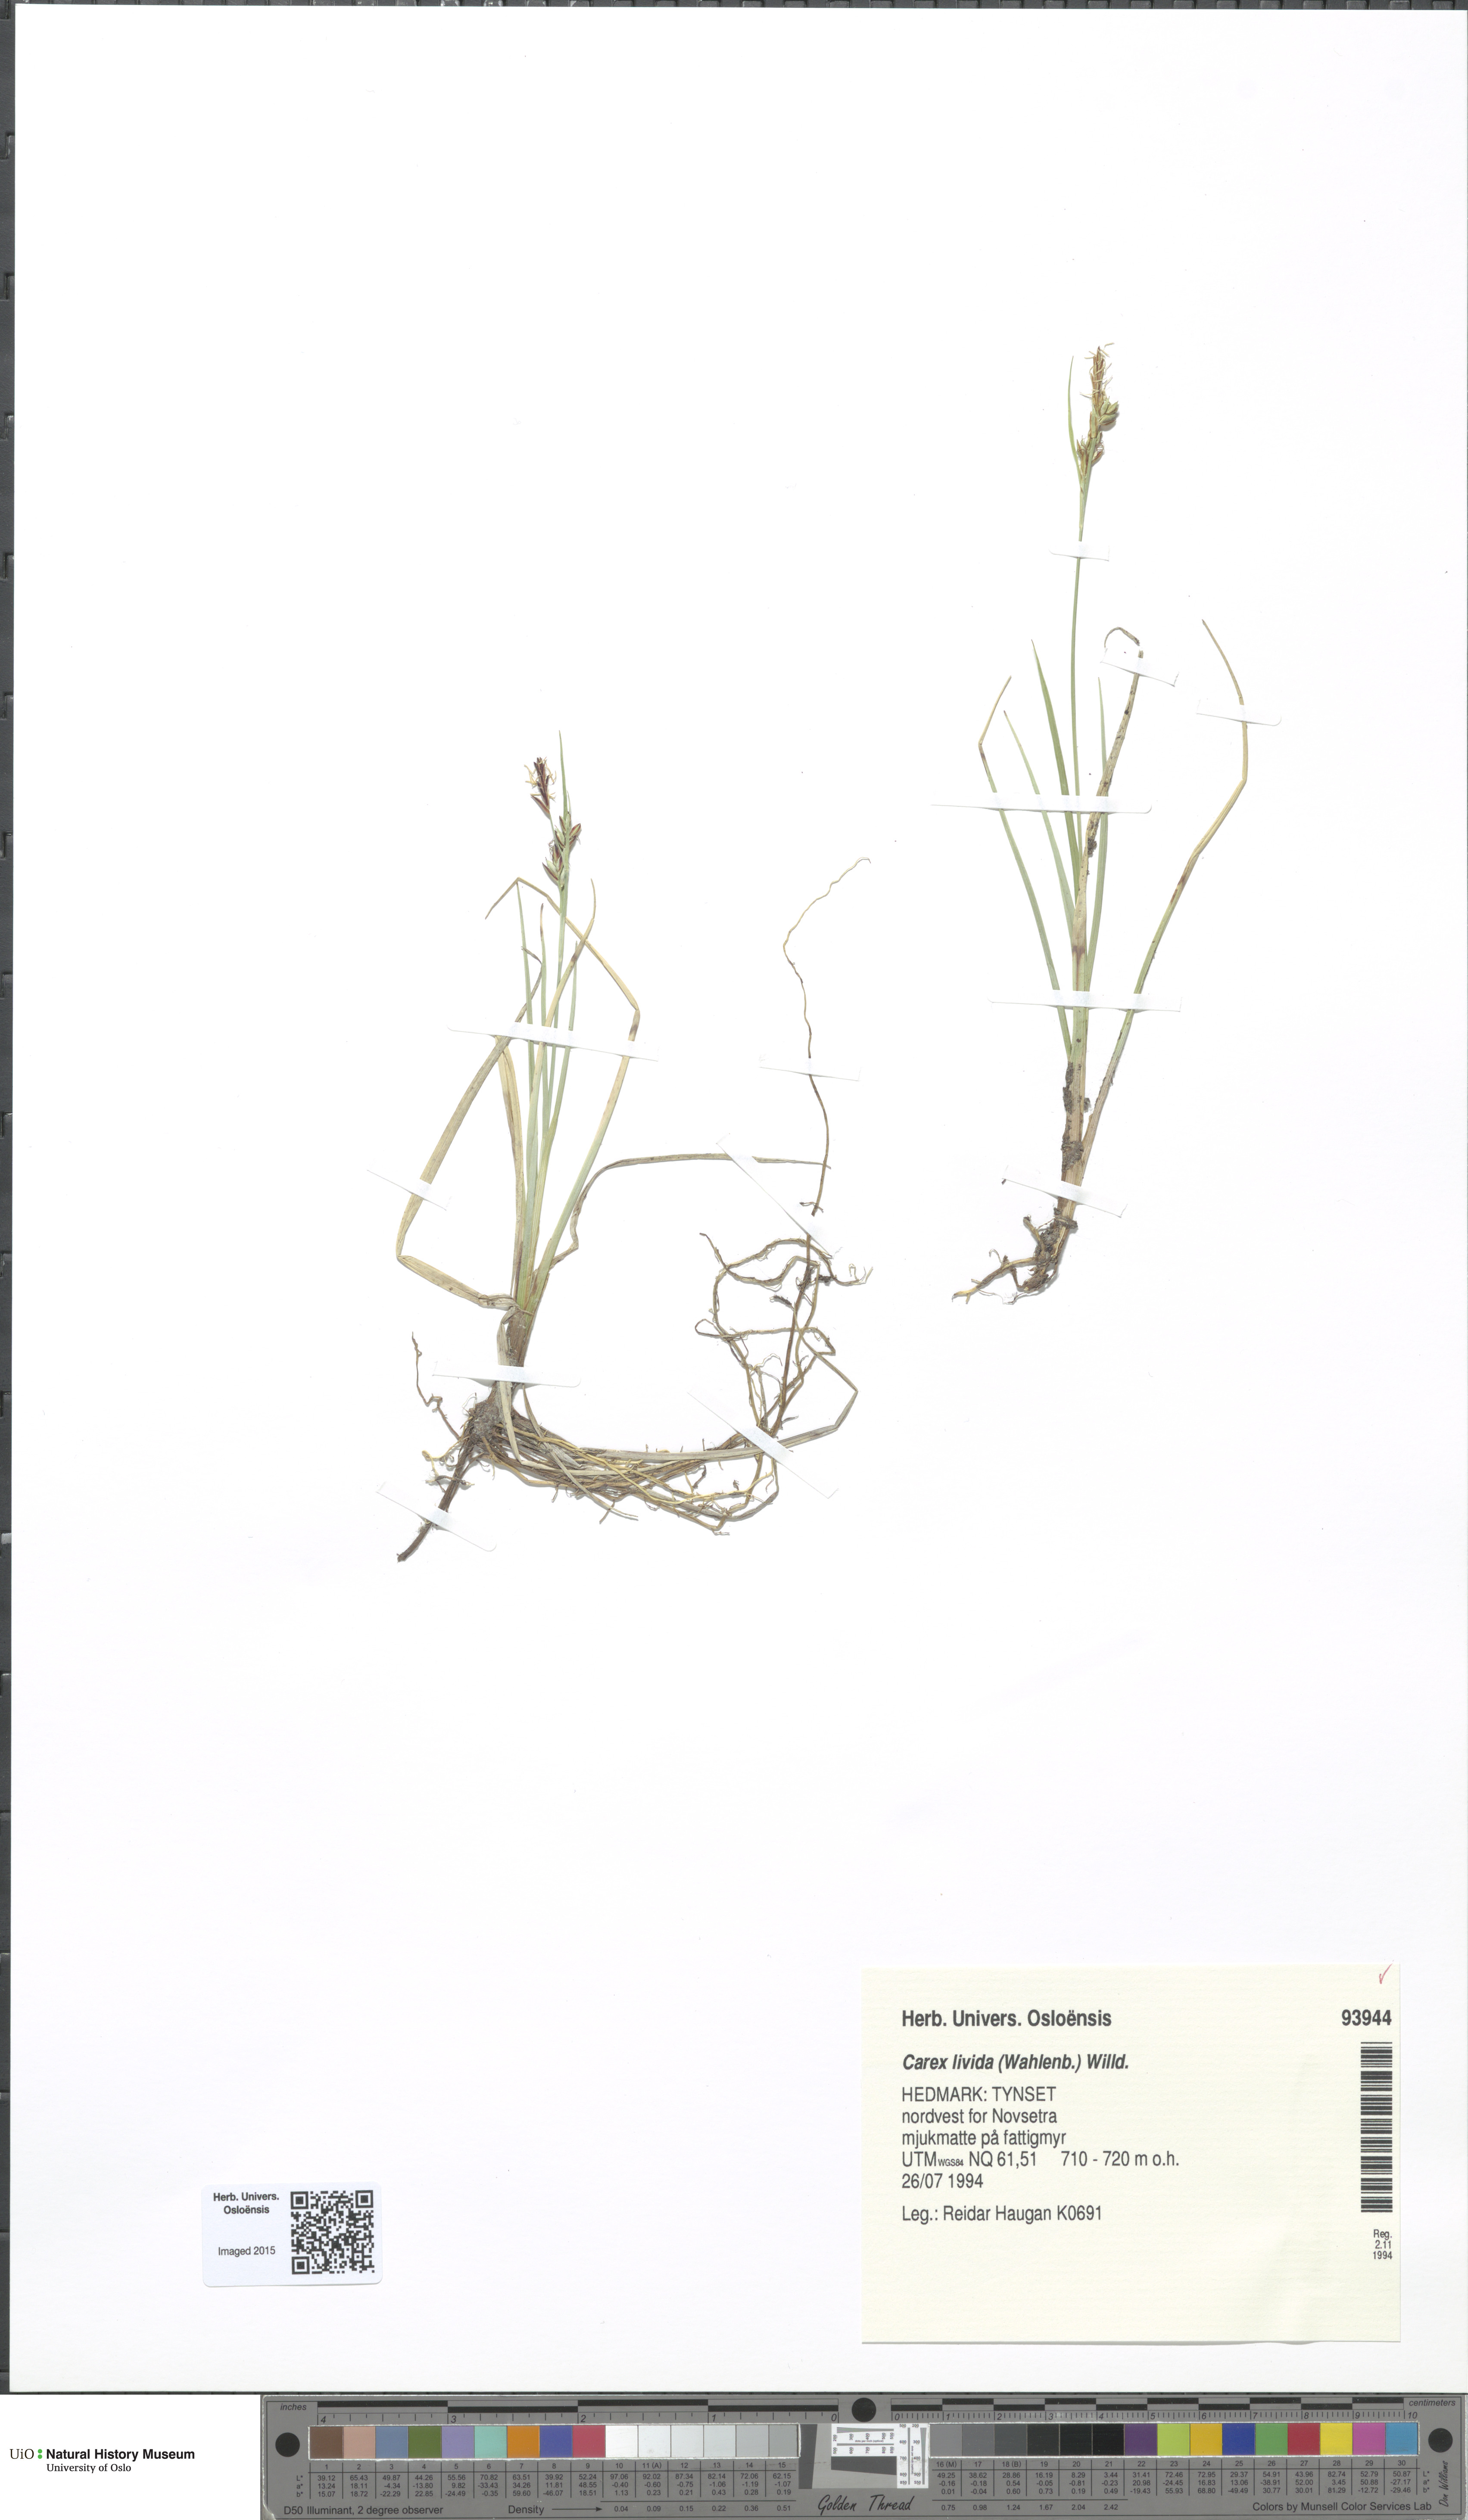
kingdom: Plantae
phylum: Tracheophyta
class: Liliopsida
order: Poales
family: Cyperaceae
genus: Carex
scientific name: Carex livida
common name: Livid sedge
